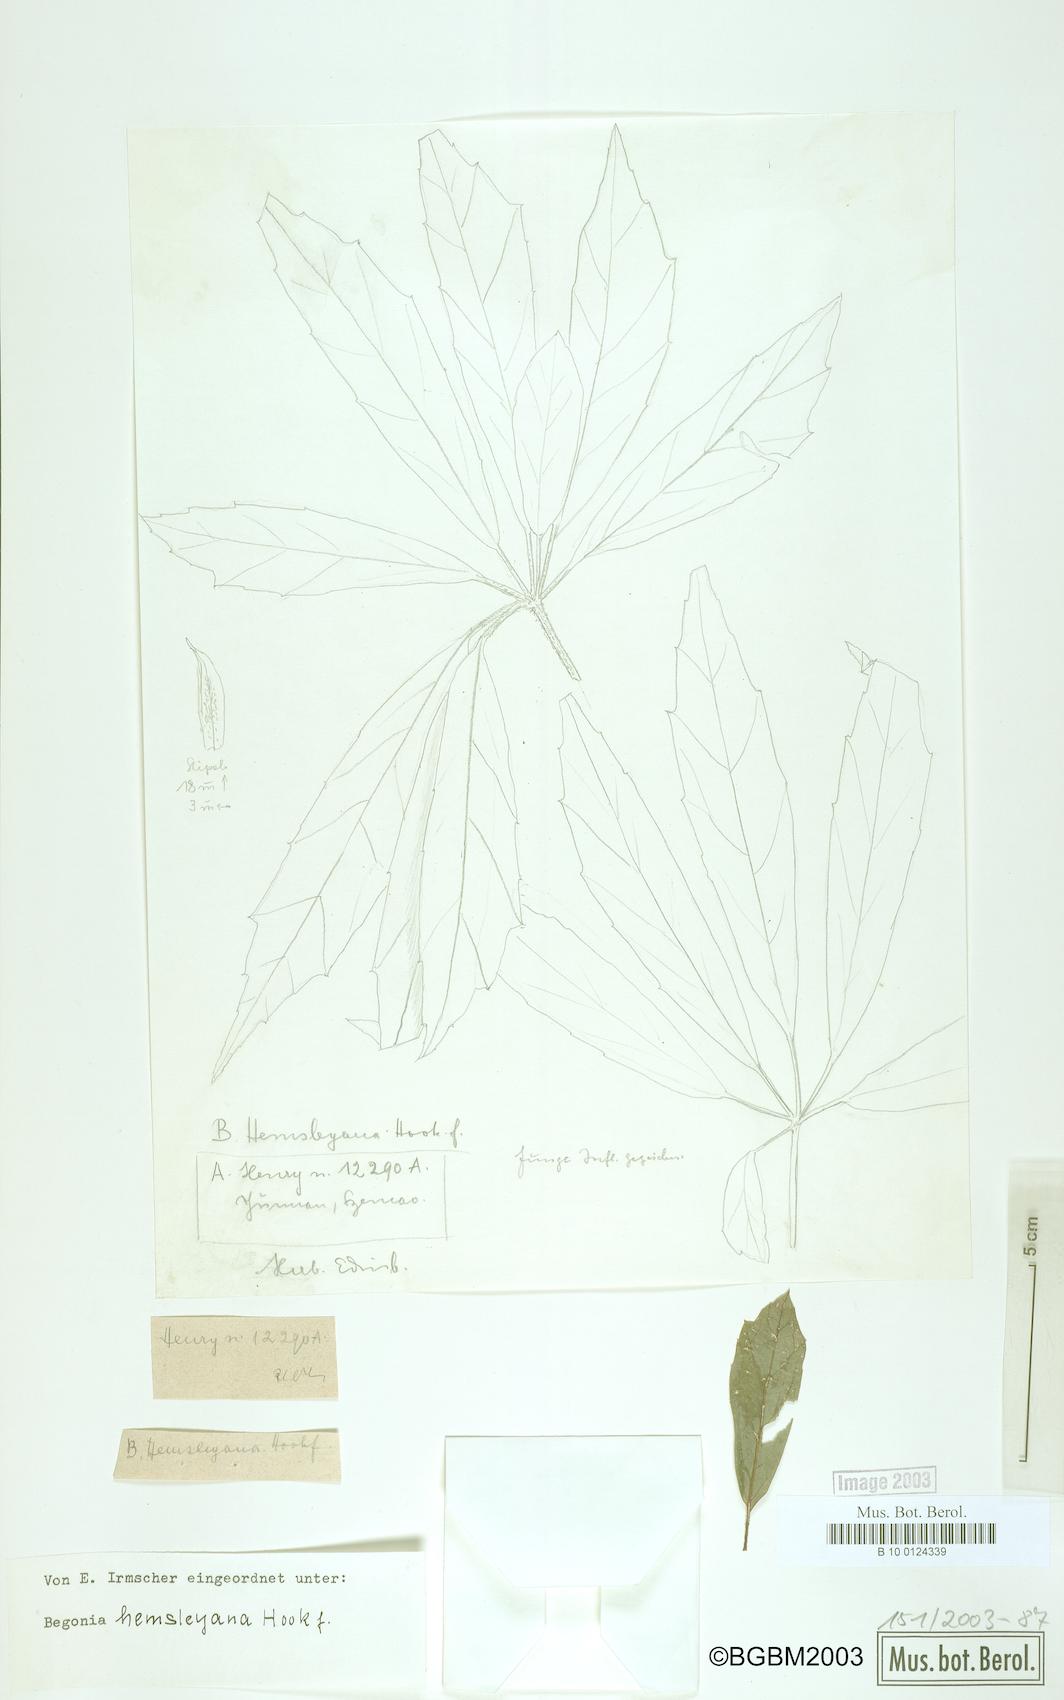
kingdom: Plantae
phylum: Tracheophyta
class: Magnoliopsida
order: Cucurbitales
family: Begoniaceae
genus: Begonia
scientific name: Begonia hemsleyana
